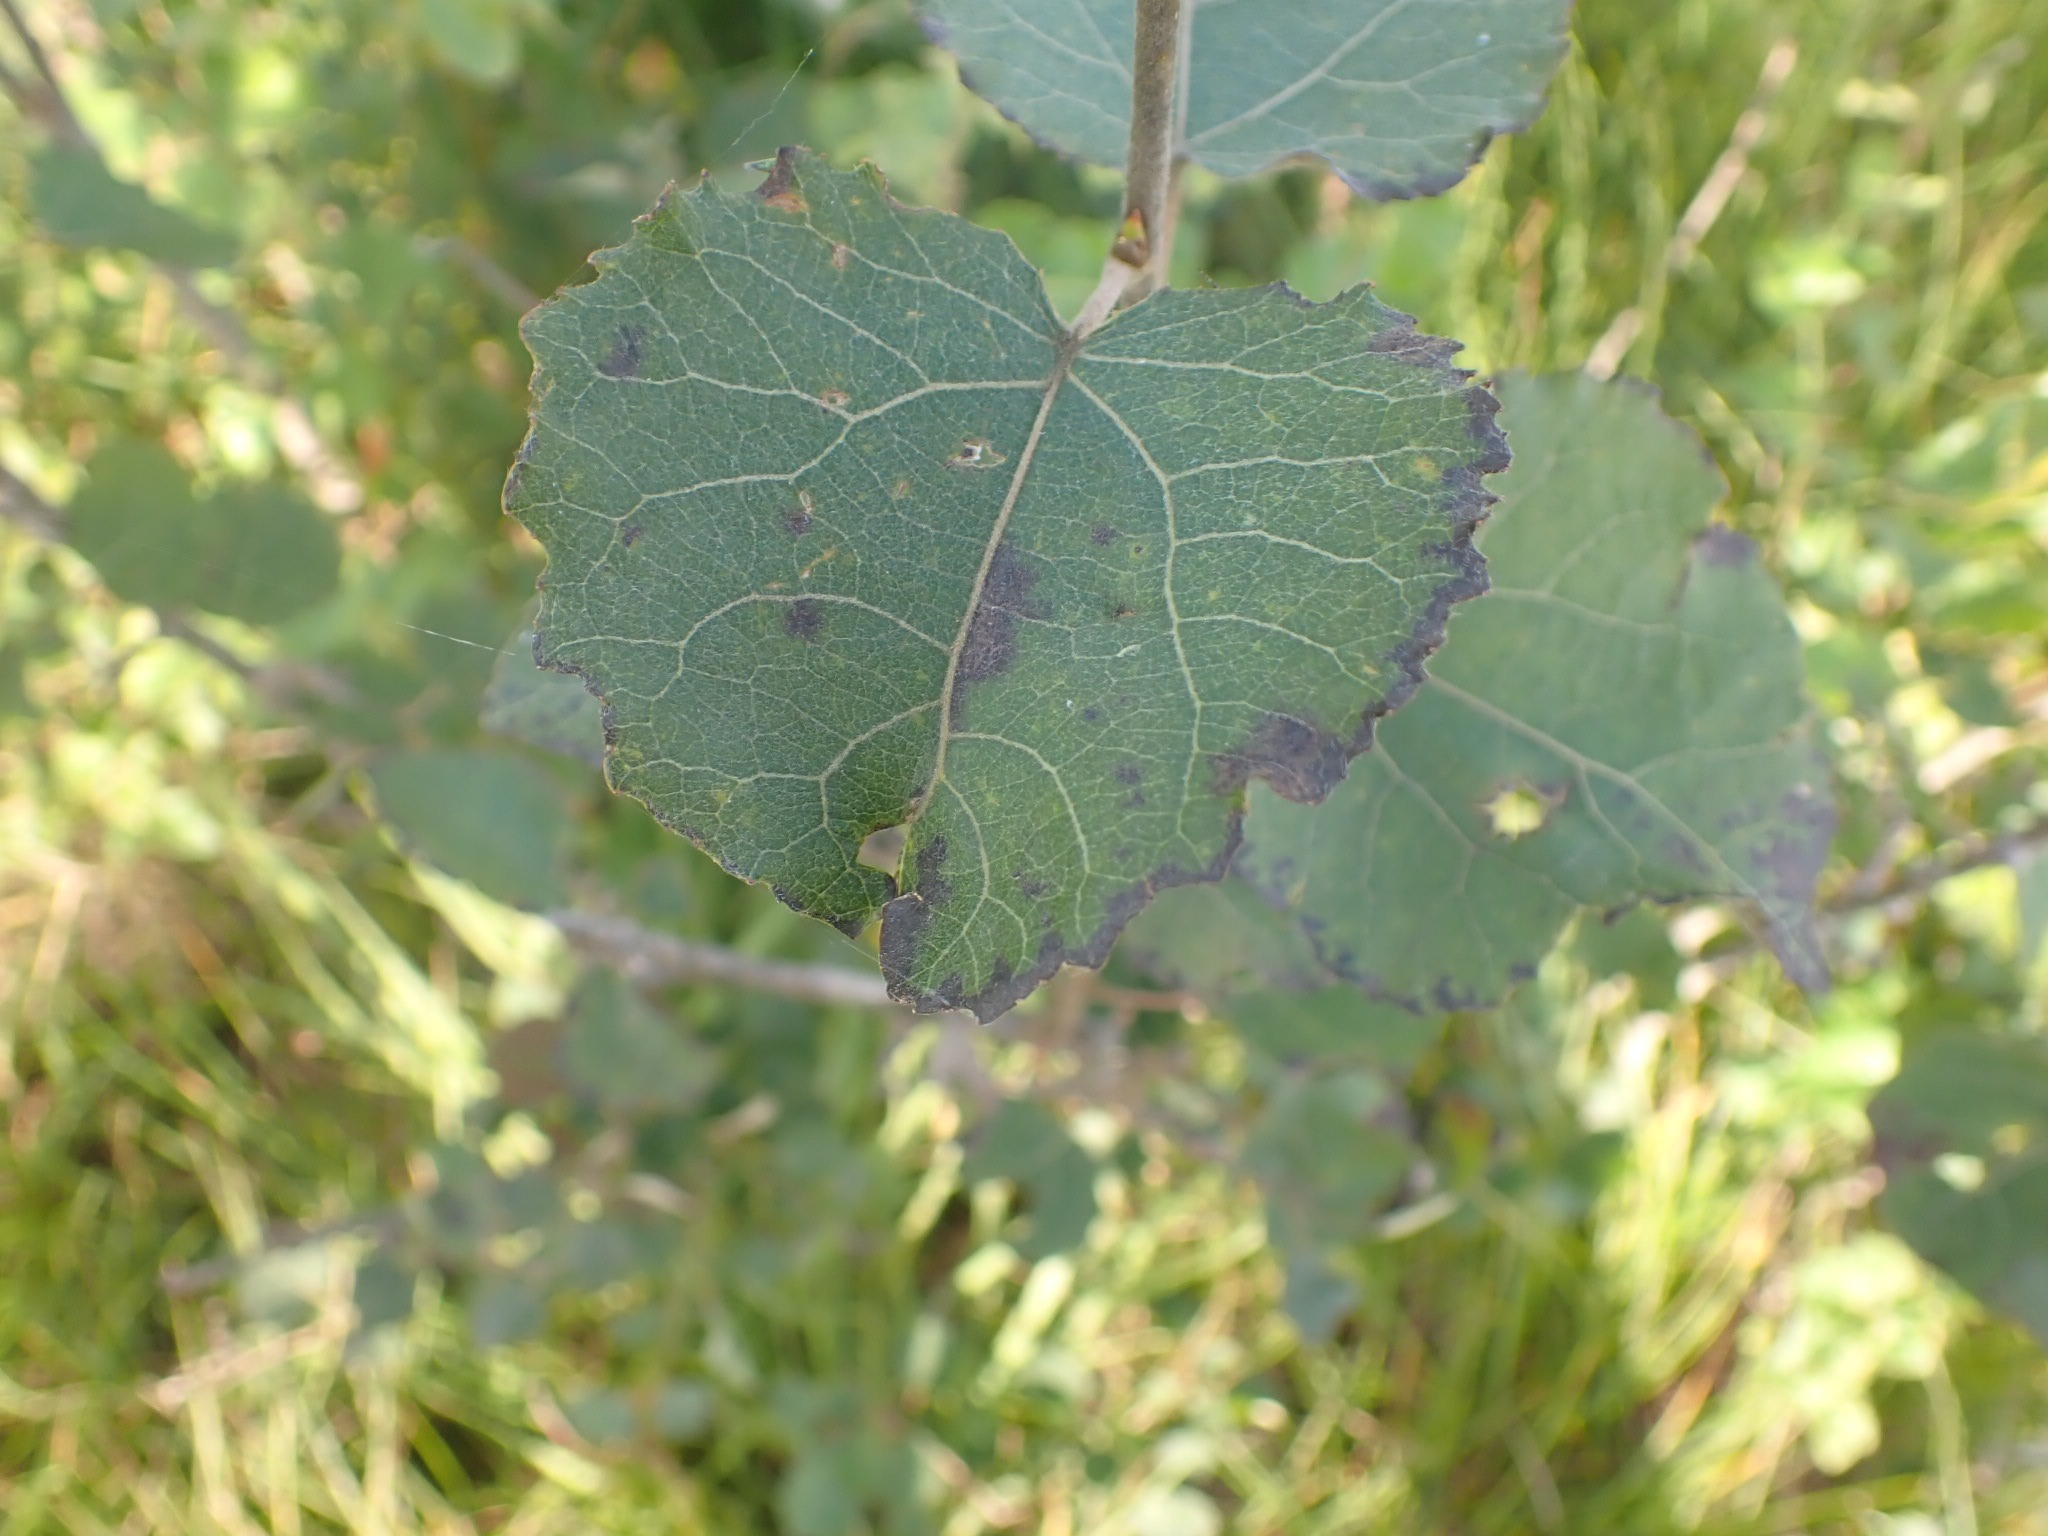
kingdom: Plantae
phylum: Tracheophyta
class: Magnoliopsida
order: Malpighiales
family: Salicaceae
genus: Populus
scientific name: Populus tremula
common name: Bævreasp
